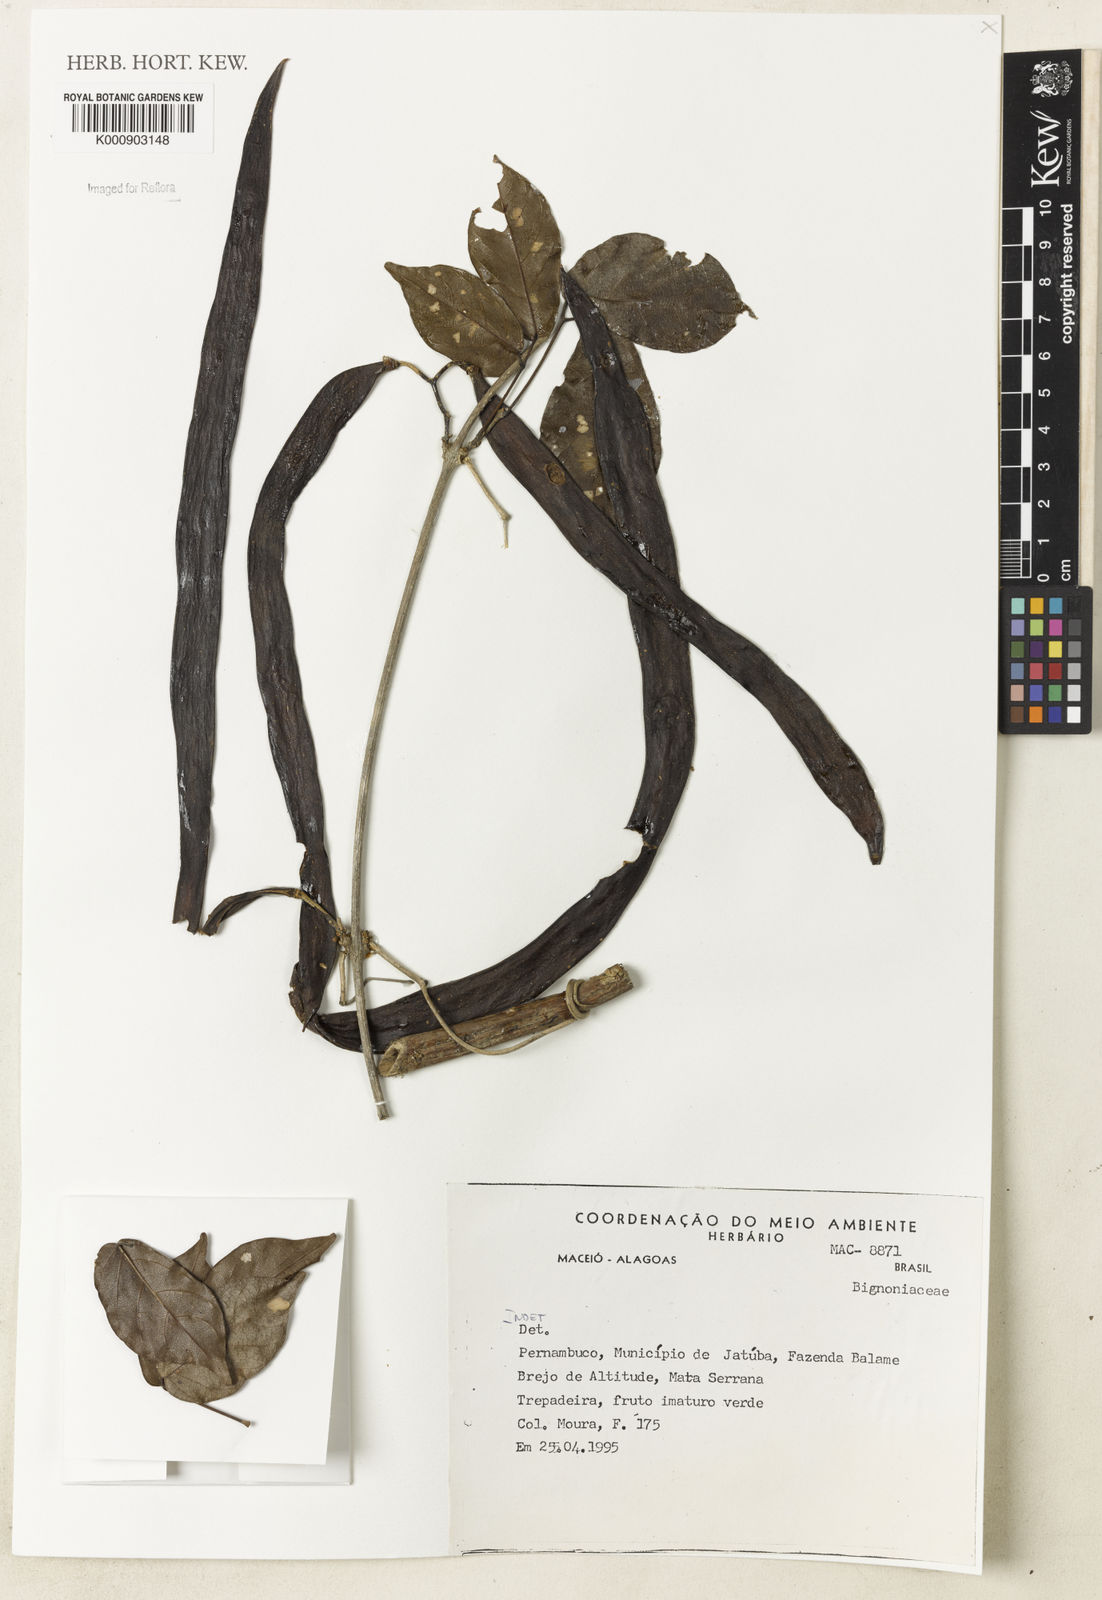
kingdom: Plantae
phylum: Tracheophyta
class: Magnoliopsida
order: Lamiales
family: Bignoniaceae
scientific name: Bignoniaceae
